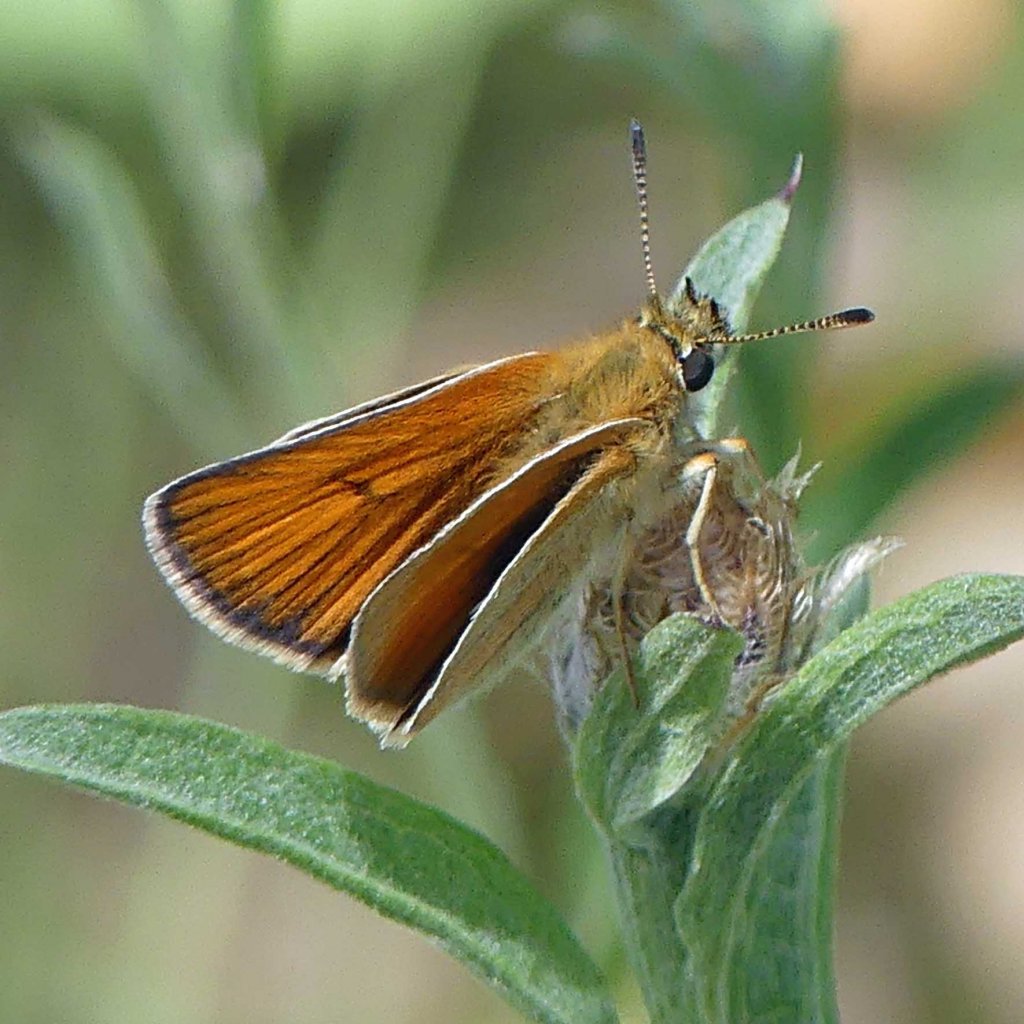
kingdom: Animalia
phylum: Arthropoda
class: Insecta
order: Lepidoptera
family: Hesperiidae
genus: Thymelicus
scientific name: Thymelicus lineola
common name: European Skipper
